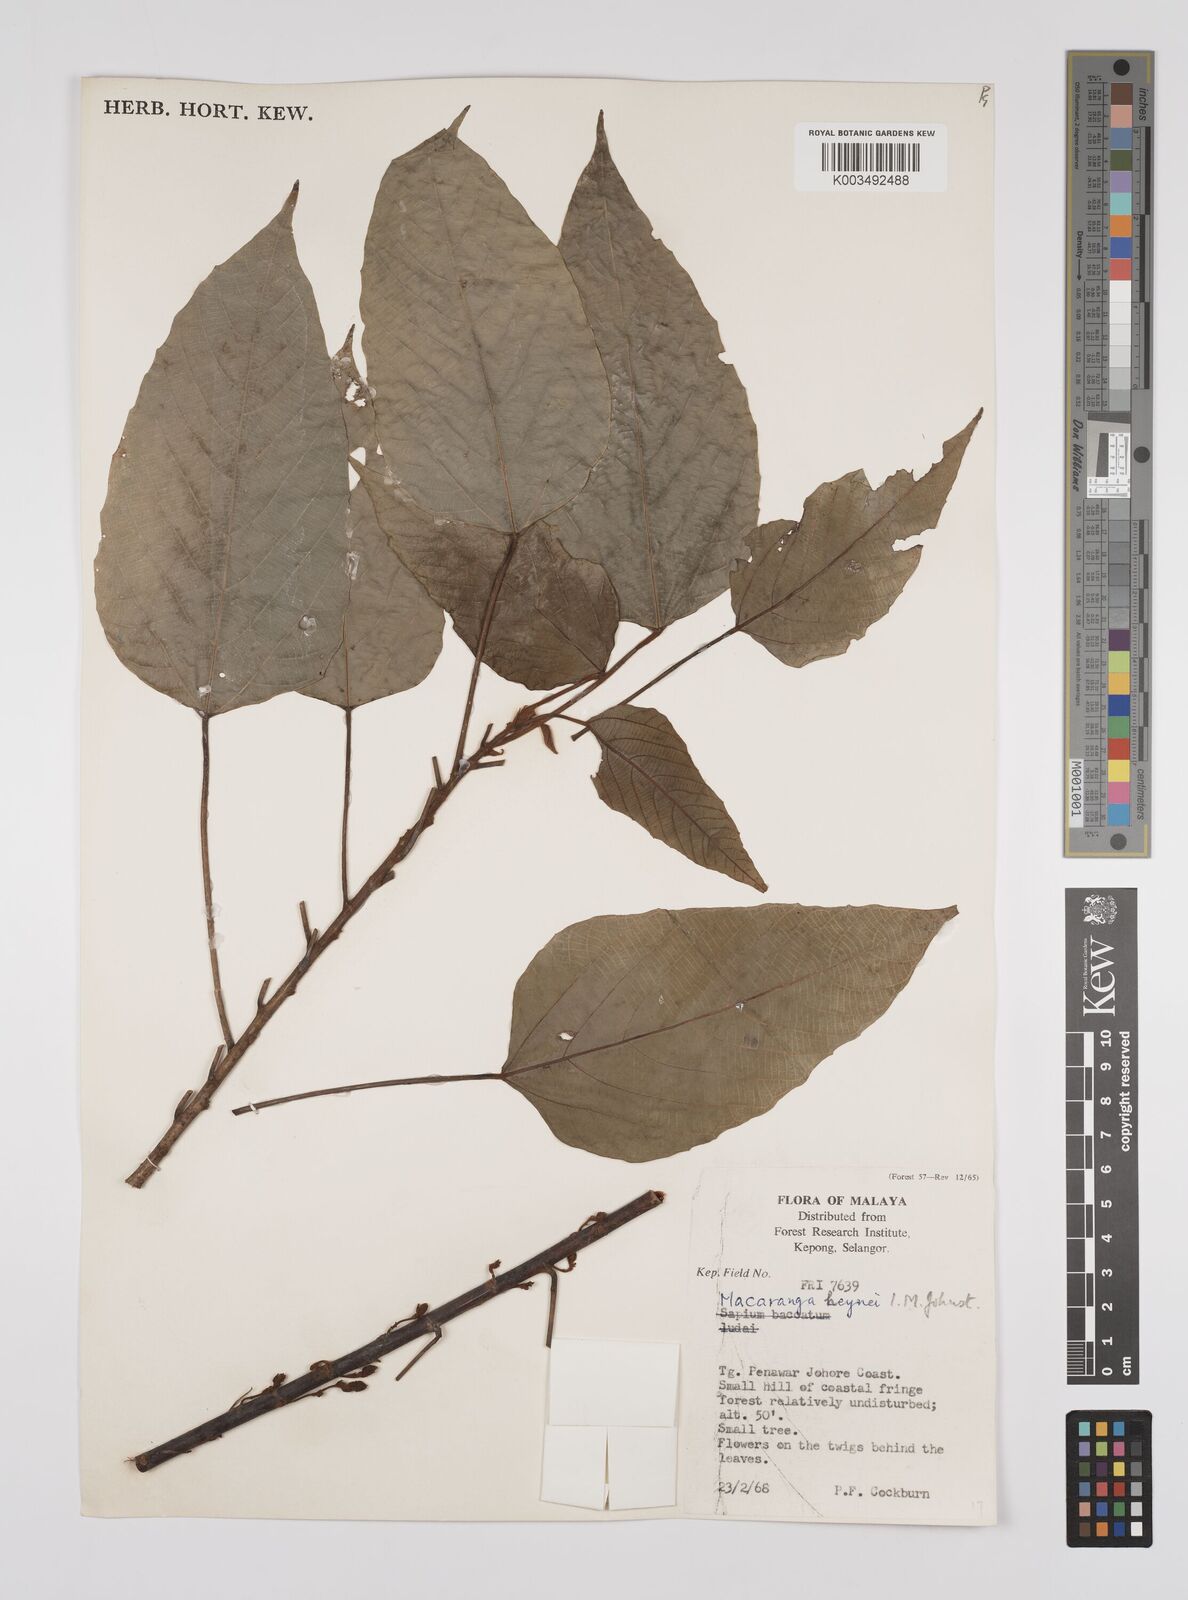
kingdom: Plantae
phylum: Tracheophyta
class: Magnoliopsida
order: Malpighiales
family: Euphorbiaceae
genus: Macaranga
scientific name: Macaranga heynei
